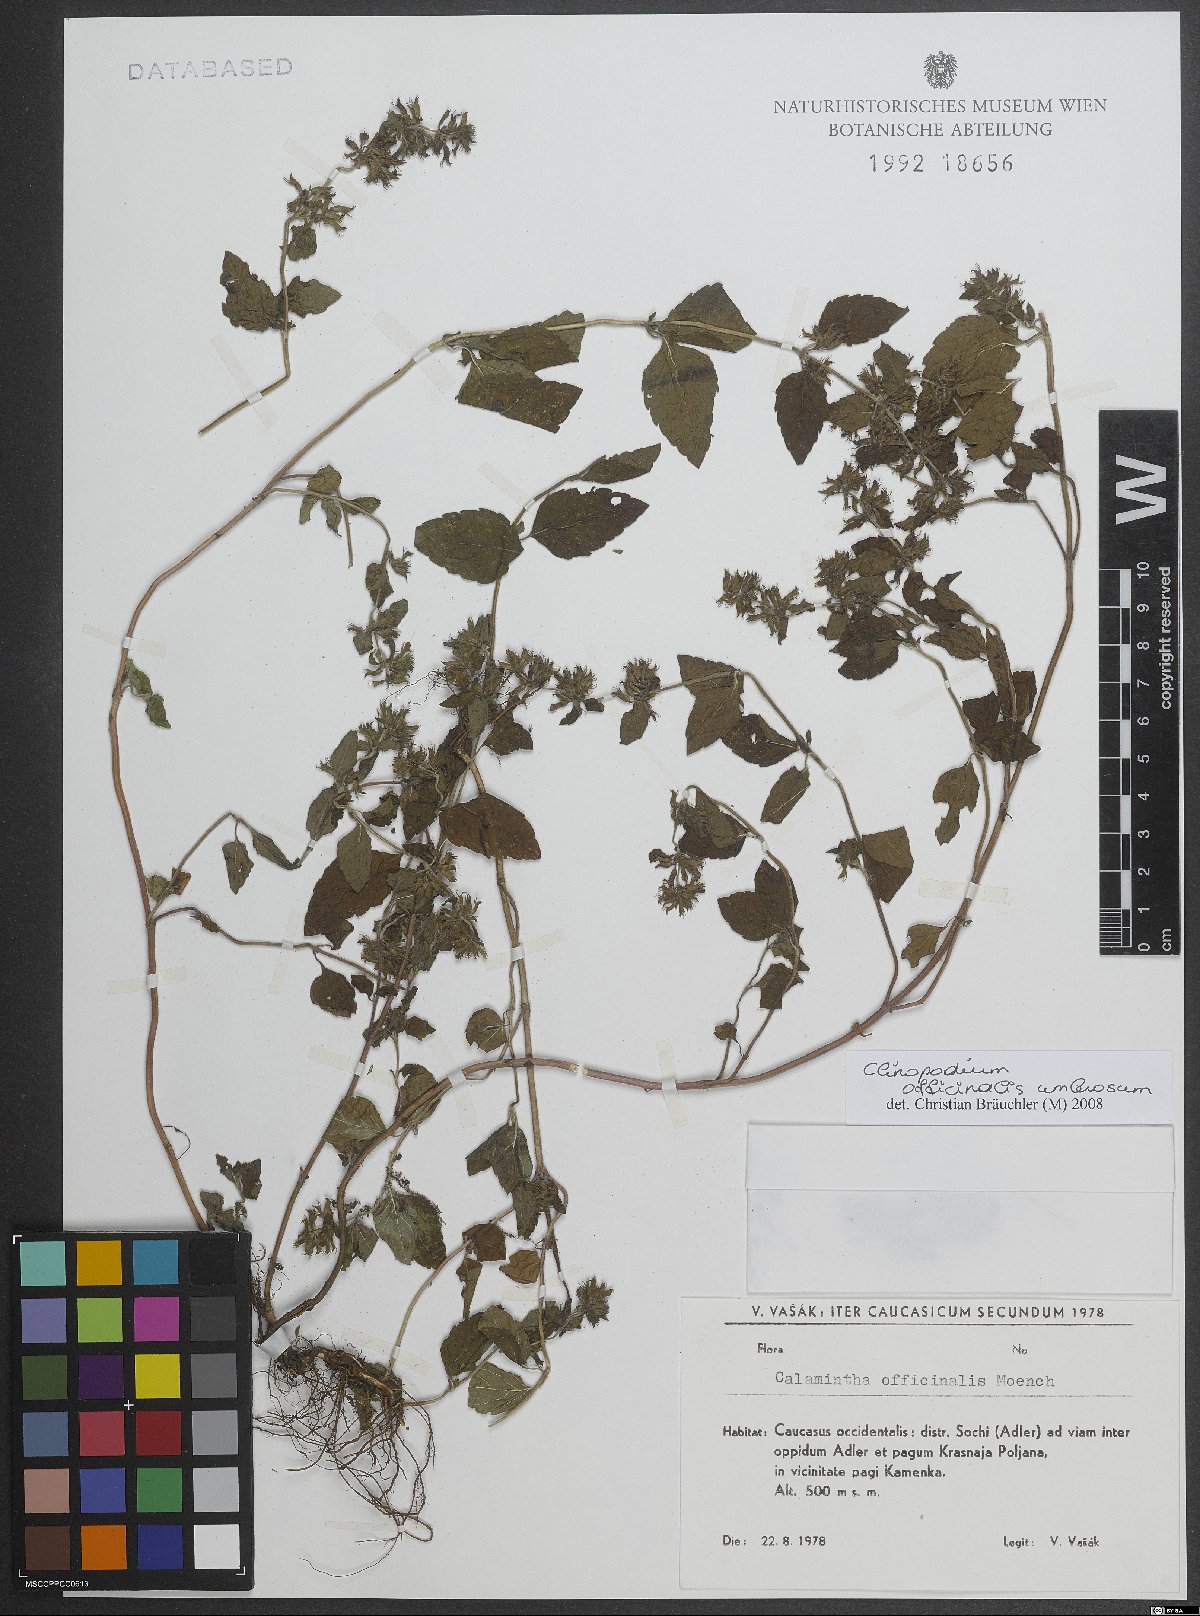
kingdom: Plantae
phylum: Tracheophyta
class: Magnoliopsida
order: Lamiales
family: Lamiaceae
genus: Clinopodium
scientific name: Clinopodium nepeta
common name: Lesser calamint
